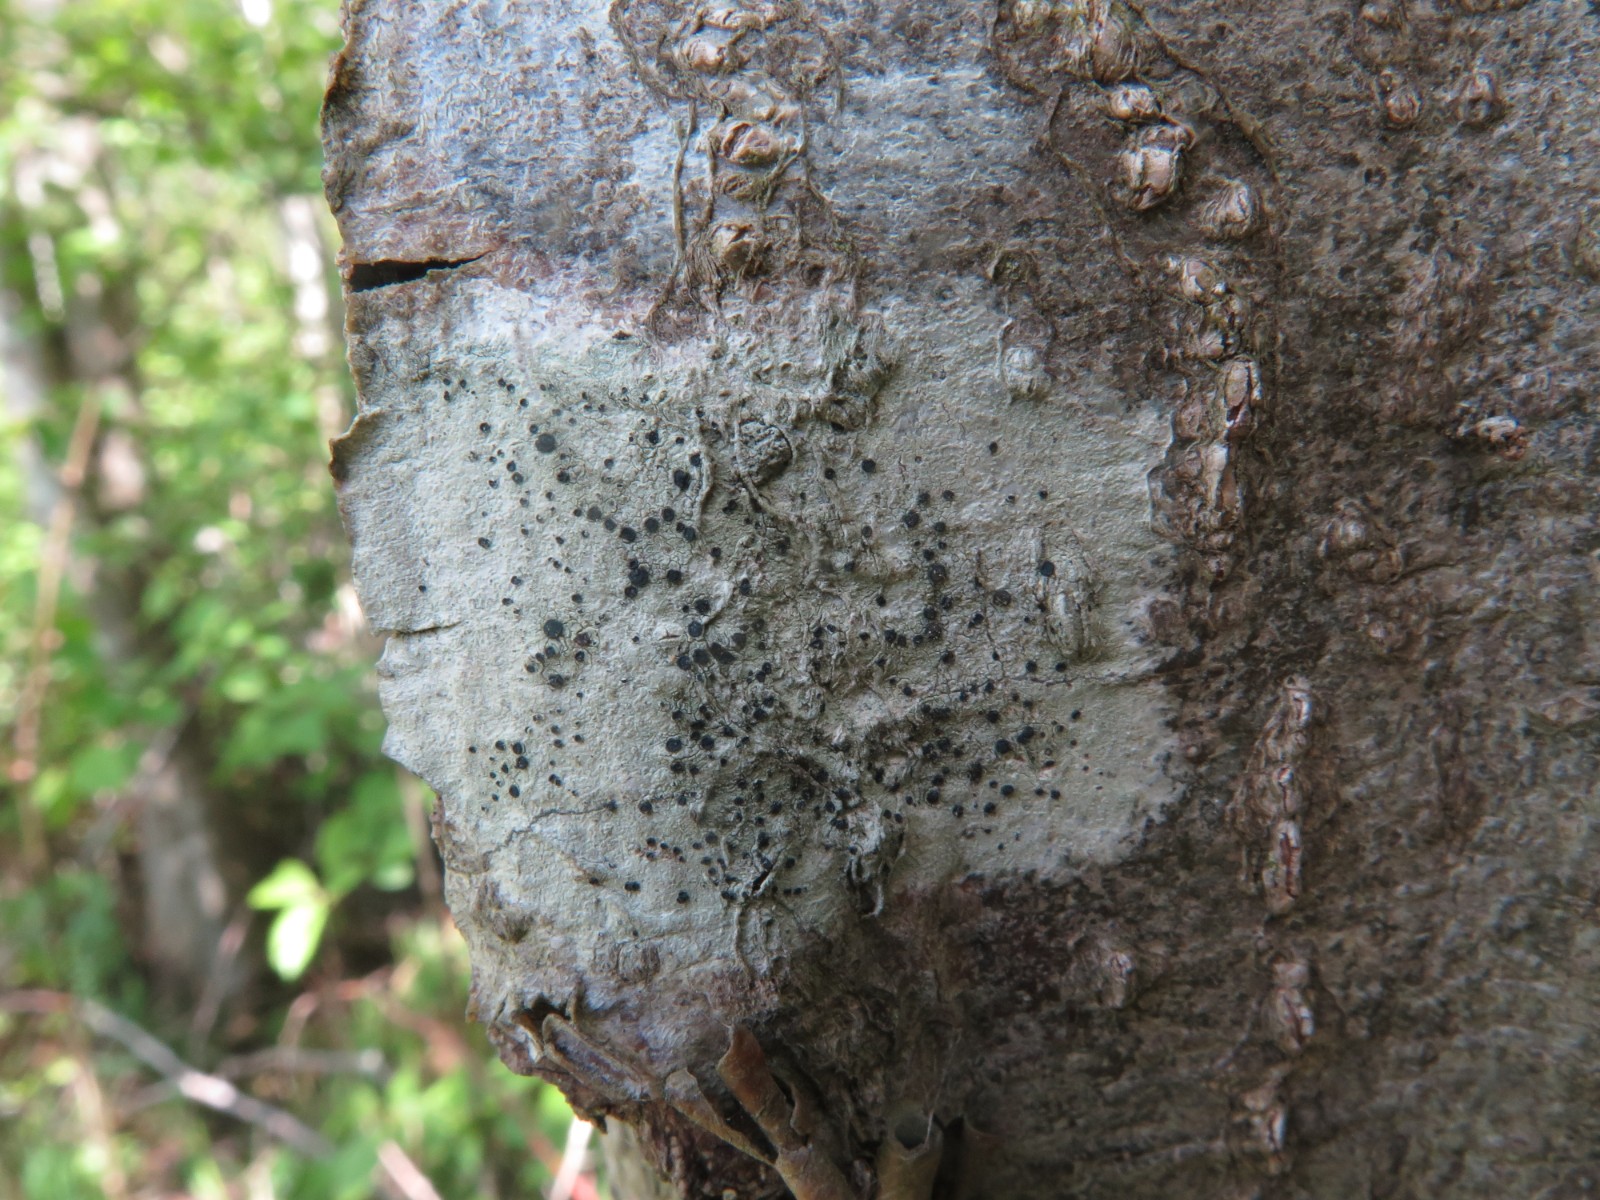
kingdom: Fungi
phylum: Ascomycota
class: Lecanoromycetes
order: Lecanorales
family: Lecanoraceae
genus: Lecidella
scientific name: Lecidella elaeochroma
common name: grågrøn skivelav
